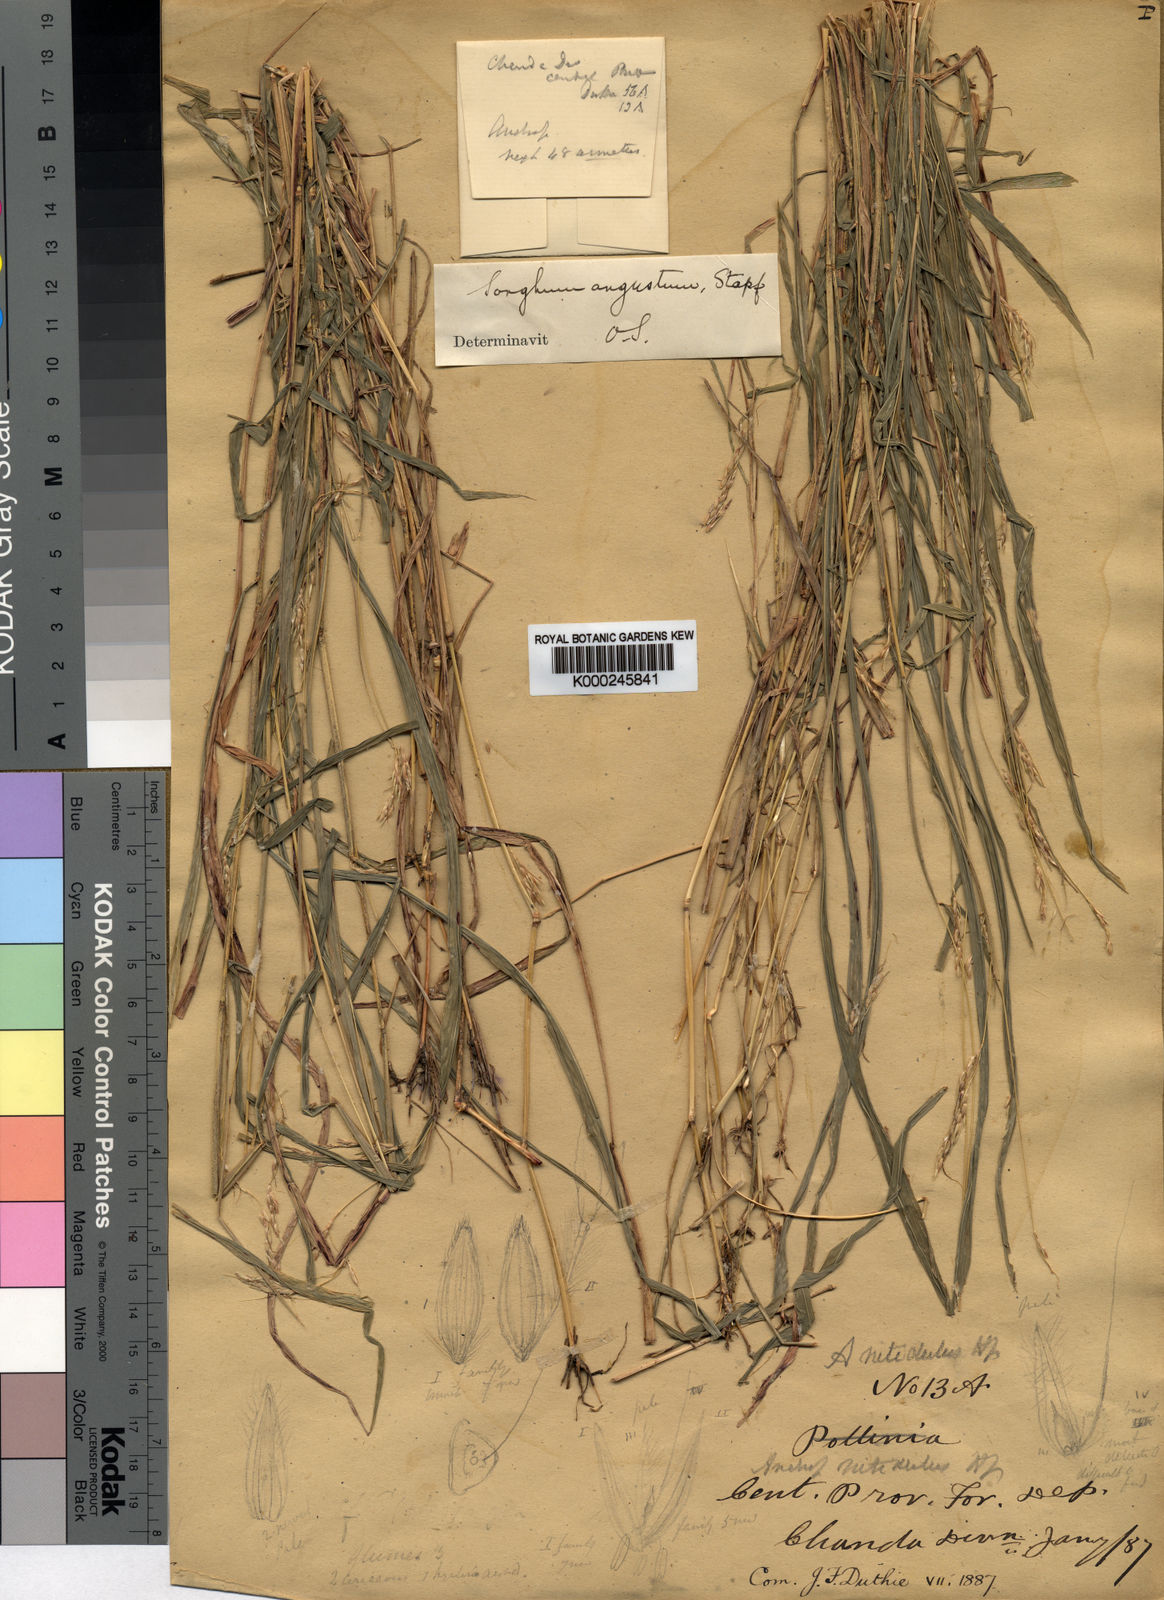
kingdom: Plantae
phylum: Tracheophyta
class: Liliopsida
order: Poales
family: Poaceae
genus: Pseudosorghum
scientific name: Pseudosorghum fasciculare
